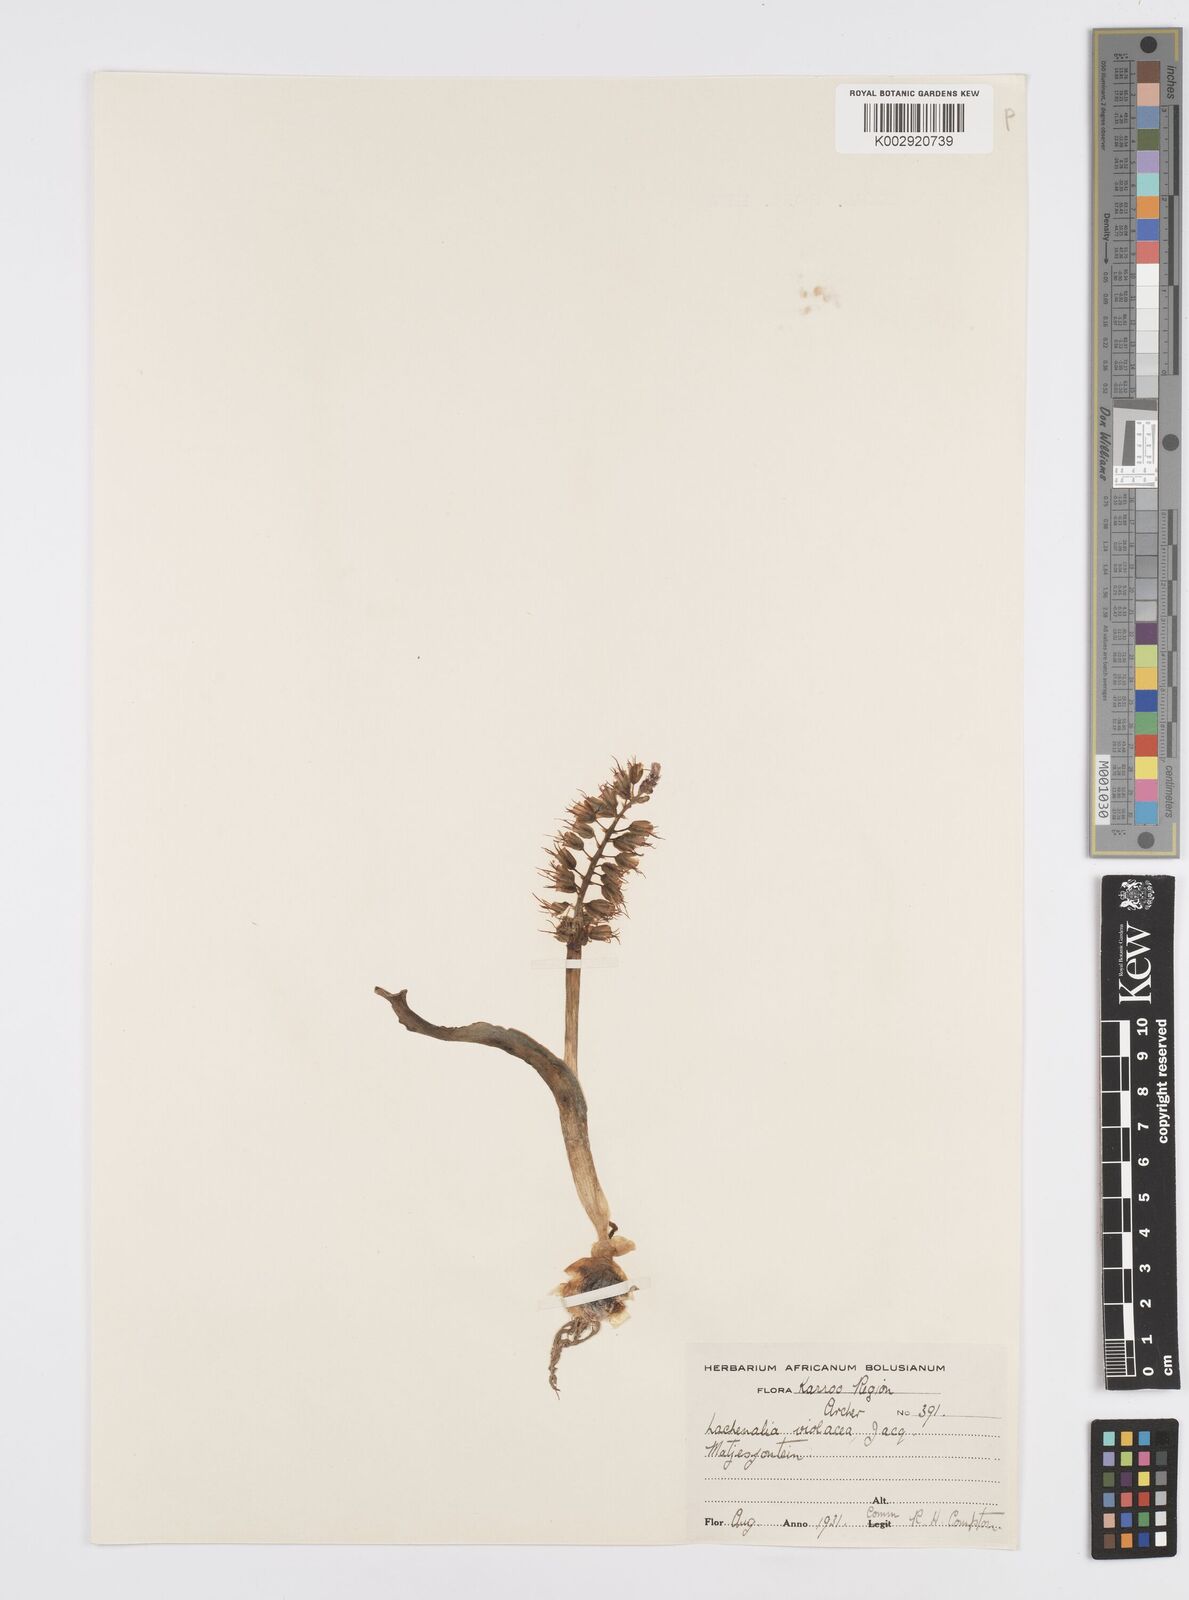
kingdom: Plantae
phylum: Tracheophyta
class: Liliopsida
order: Asparagales
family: Asparagaceae
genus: Lachenalia
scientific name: Lachenalia violacea
